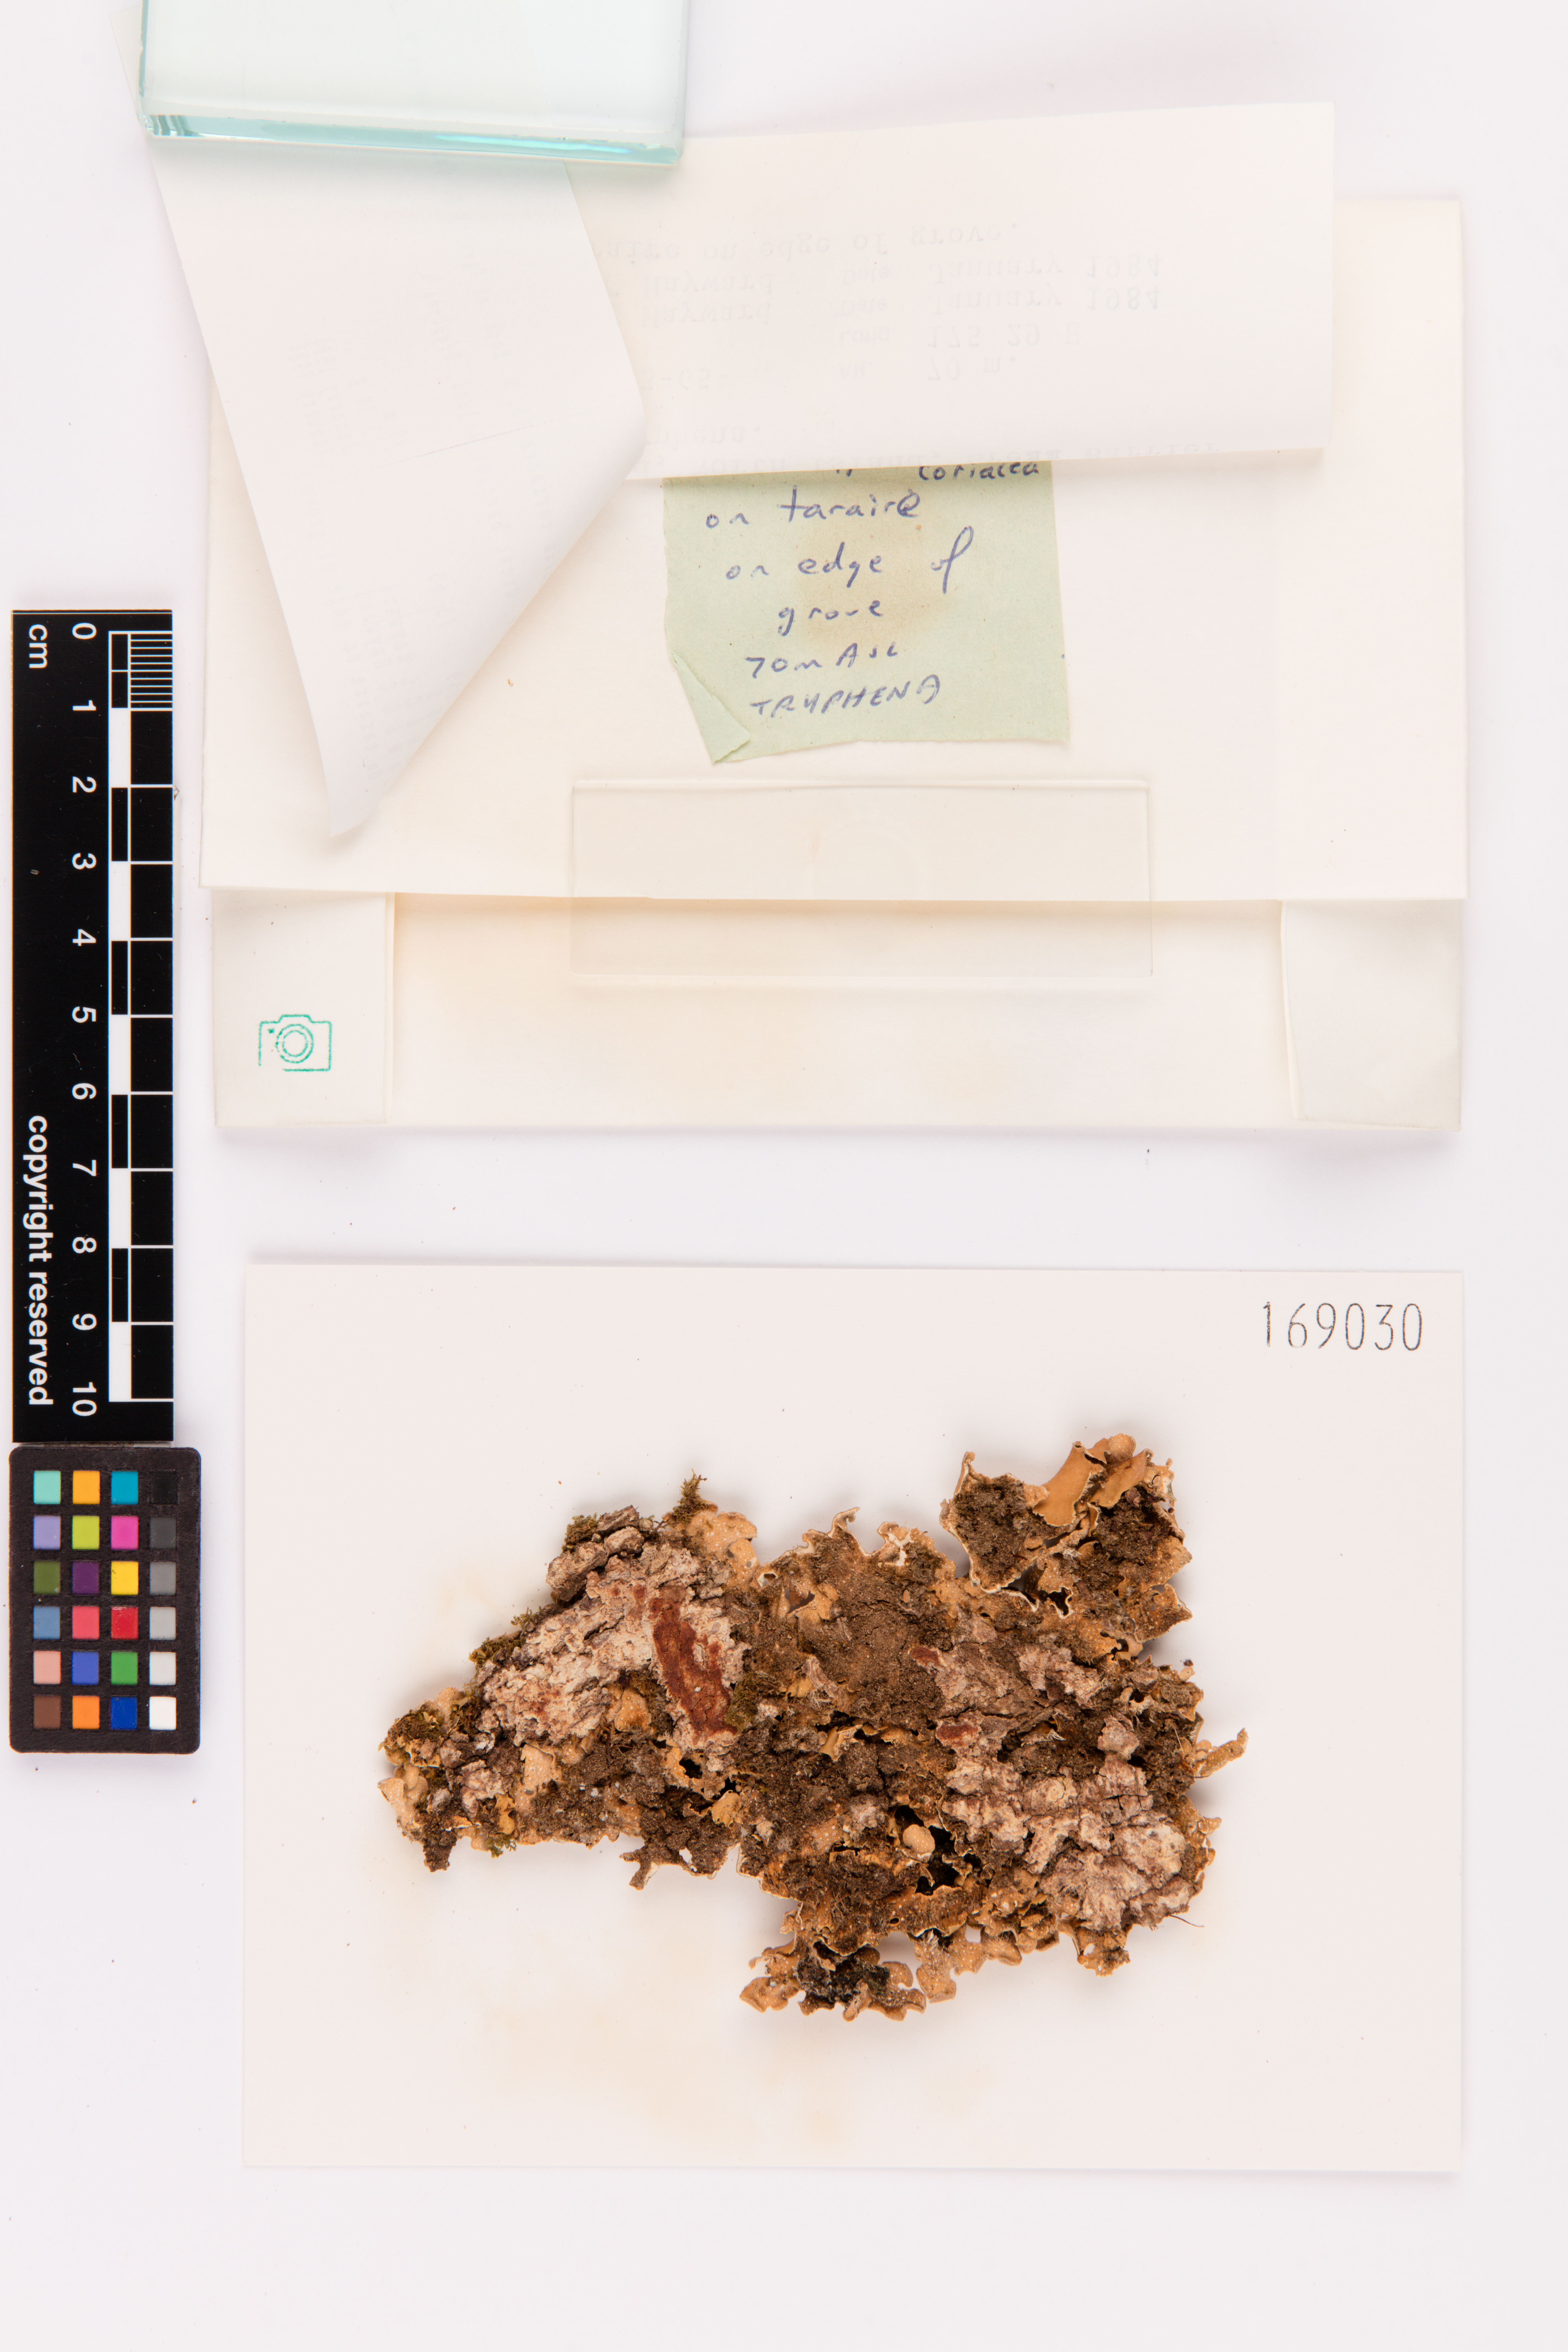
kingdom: Fungi
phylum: Ascomycota
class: Lecanoromycetes
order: Peltigerales
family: Lobariaceae
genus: Pseudocyphellaria
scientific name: Pseudocyphellaria coriacea
